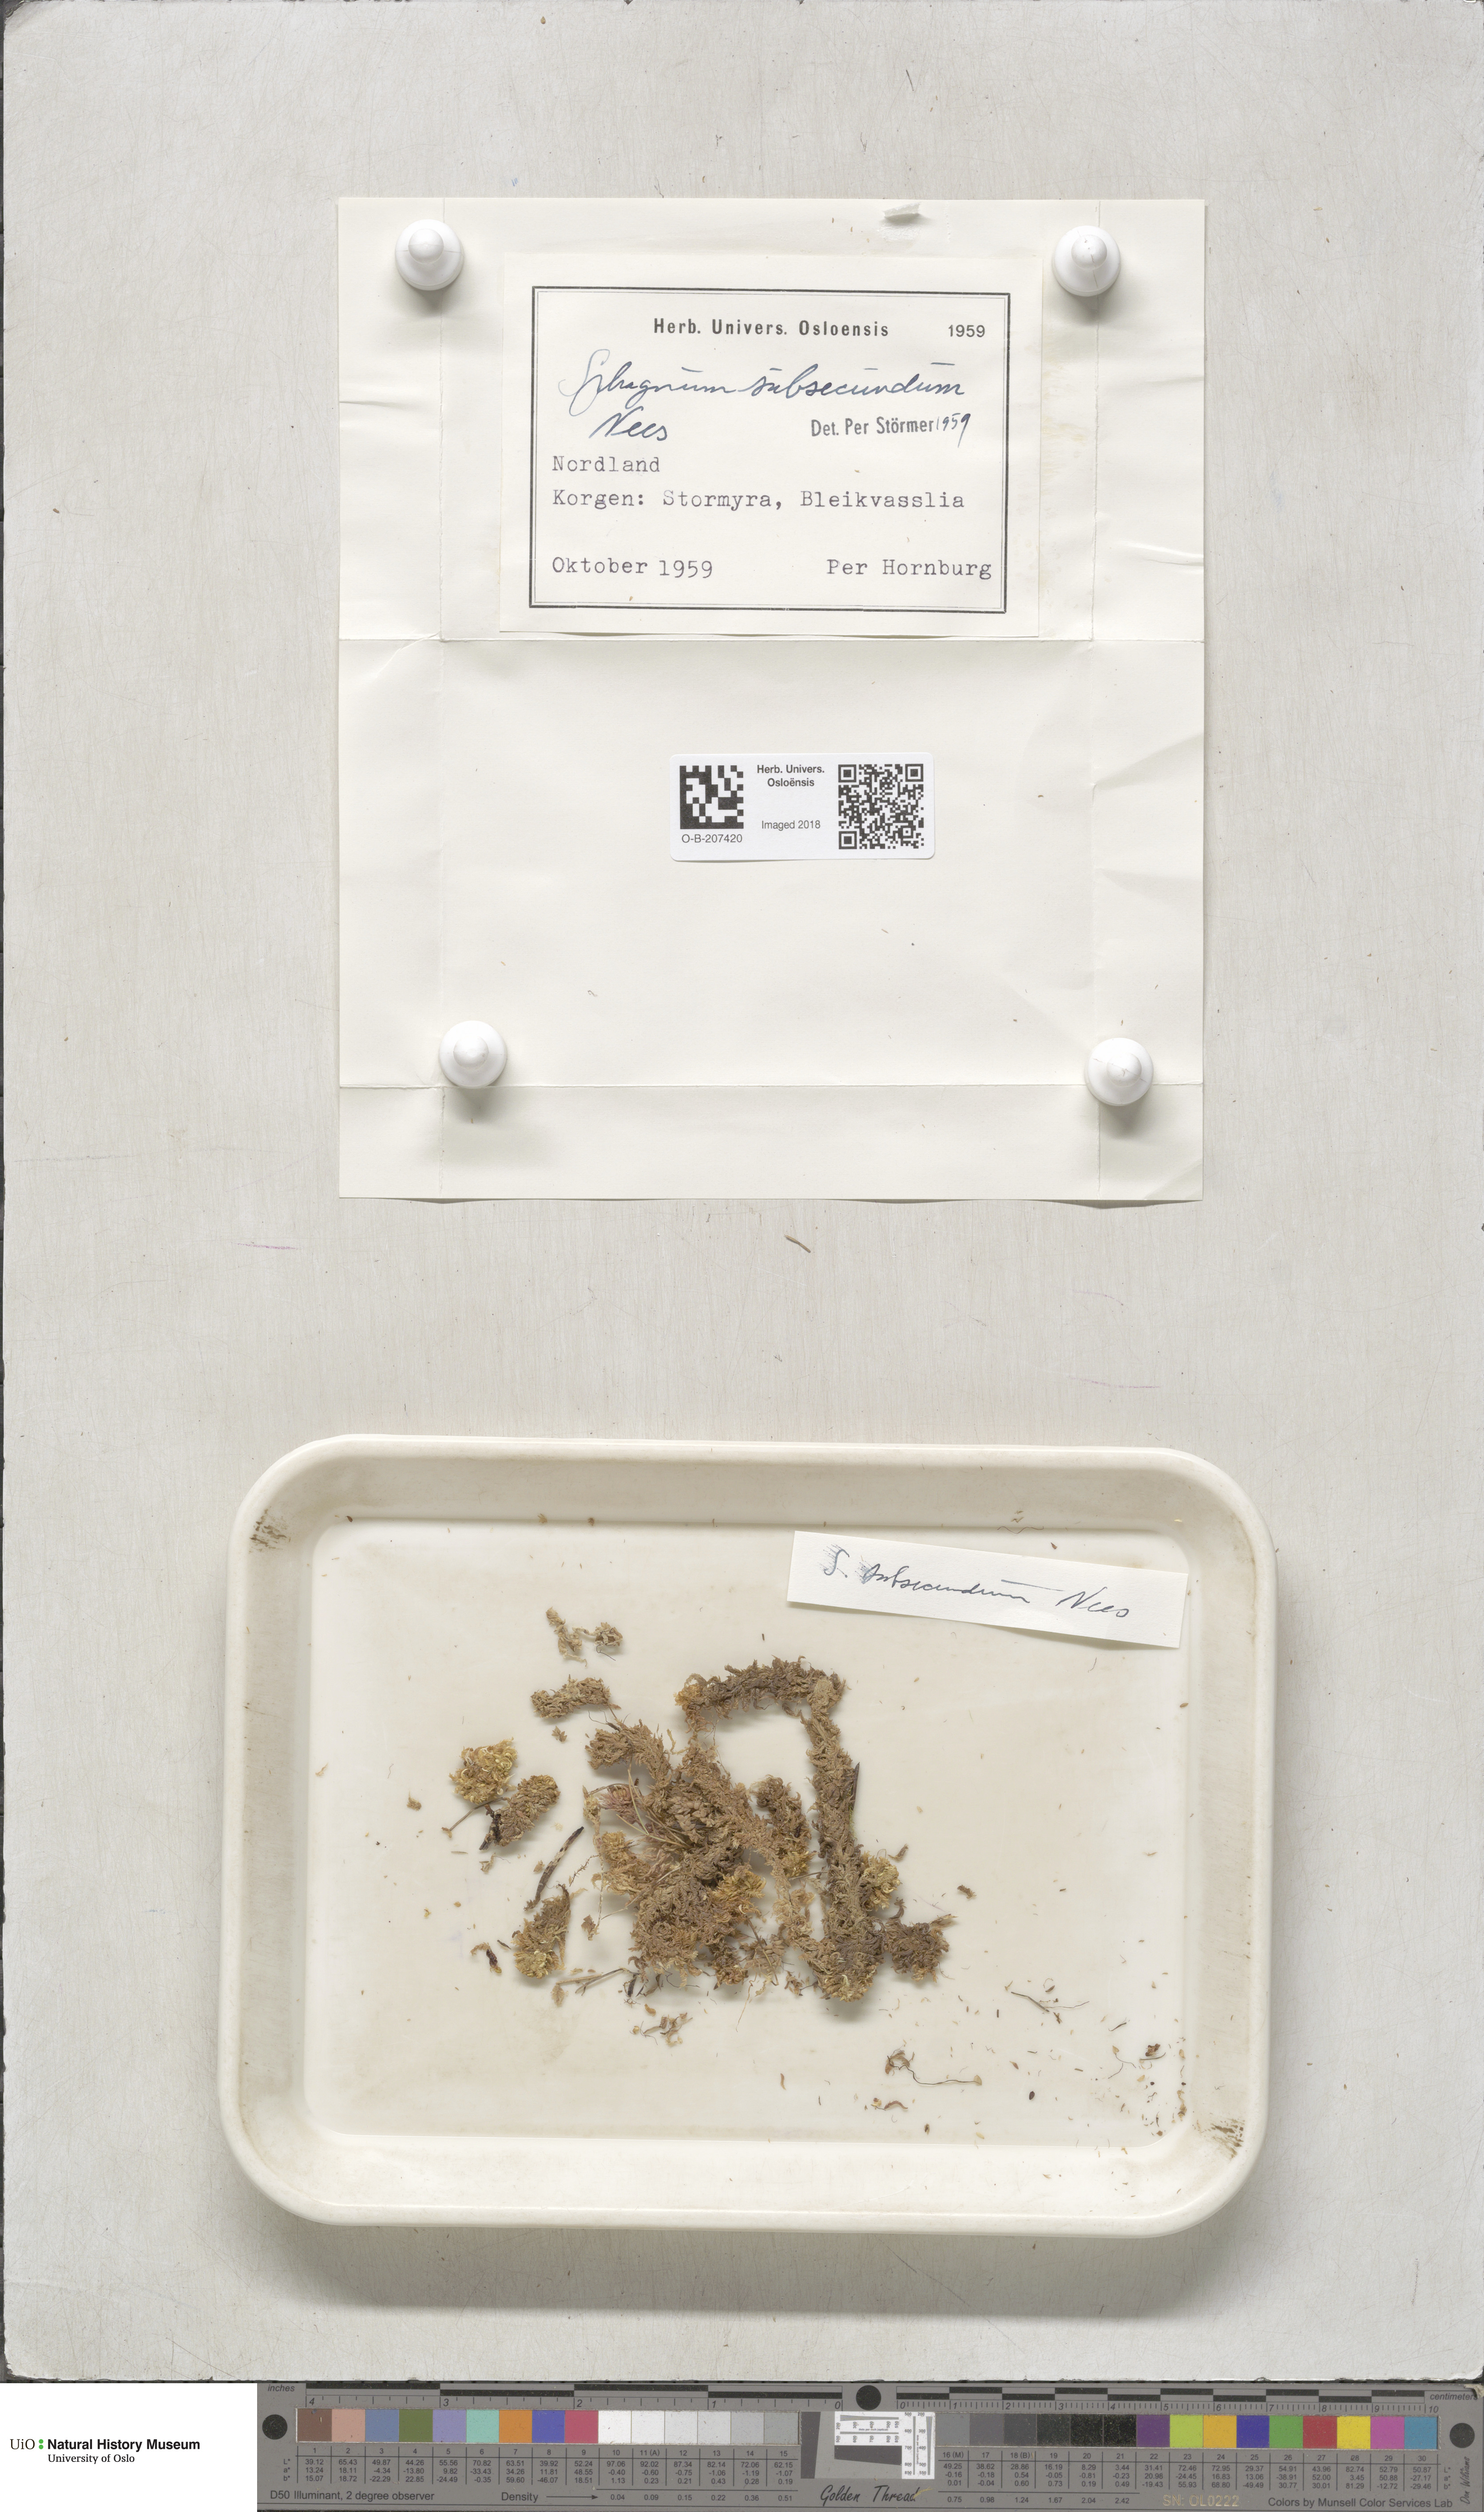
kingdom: Plantae
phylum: Bryophyta
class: Sphagnopsida
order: Sphagnales
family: Sphagnaceae
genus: Sphagnum
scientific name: Sphagnum subsecundum
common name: Orange peat moss
